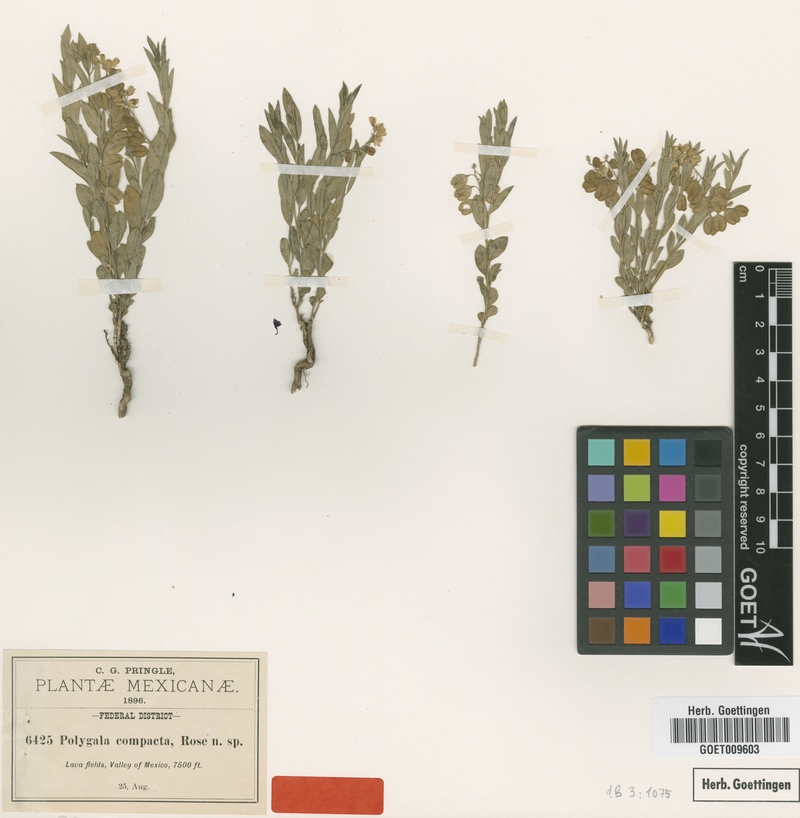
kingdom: Plantae
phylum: Tracheophyta
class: Magnoliopsida
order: Fabales
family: Polygalaceae
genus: Polygala
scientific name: Polygala compacta
